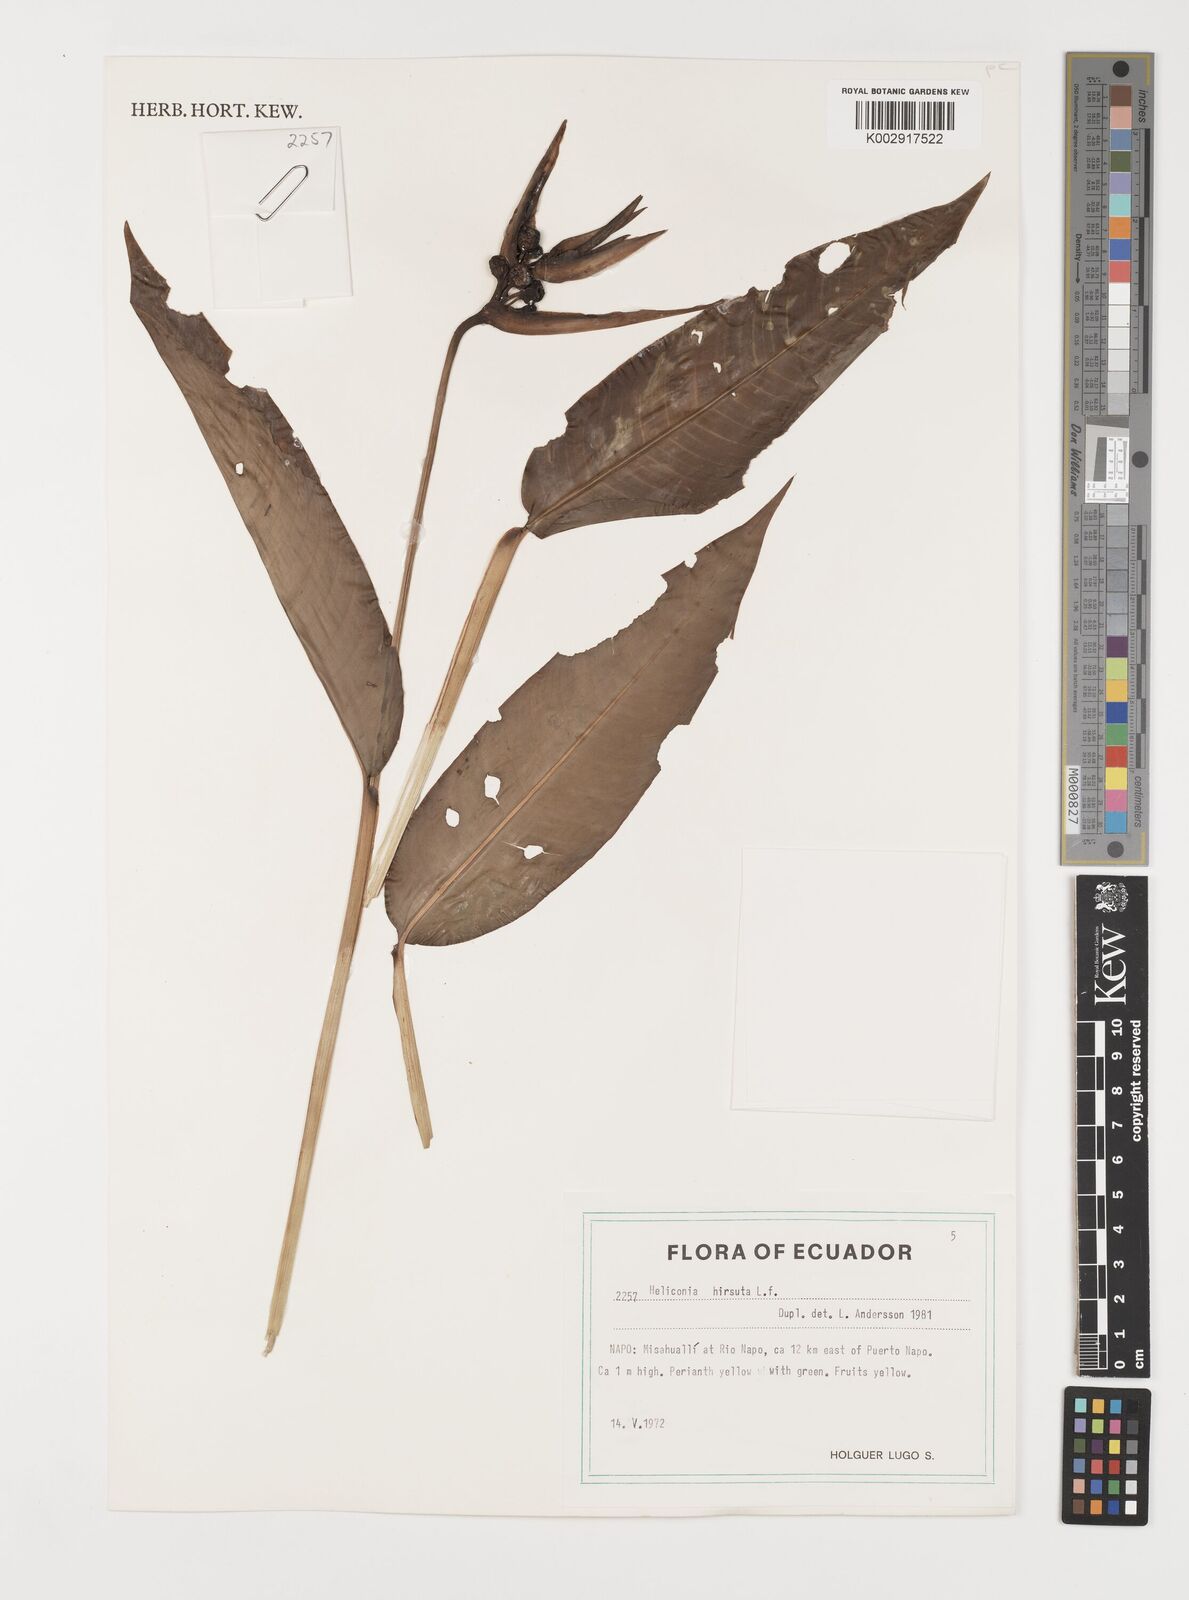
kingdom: Plantae
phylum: Tracheophyta
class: Liliopsida
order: Zingiberales
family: Heliconiaceae
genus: Heliconia
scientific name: Heliconia hirsuta
